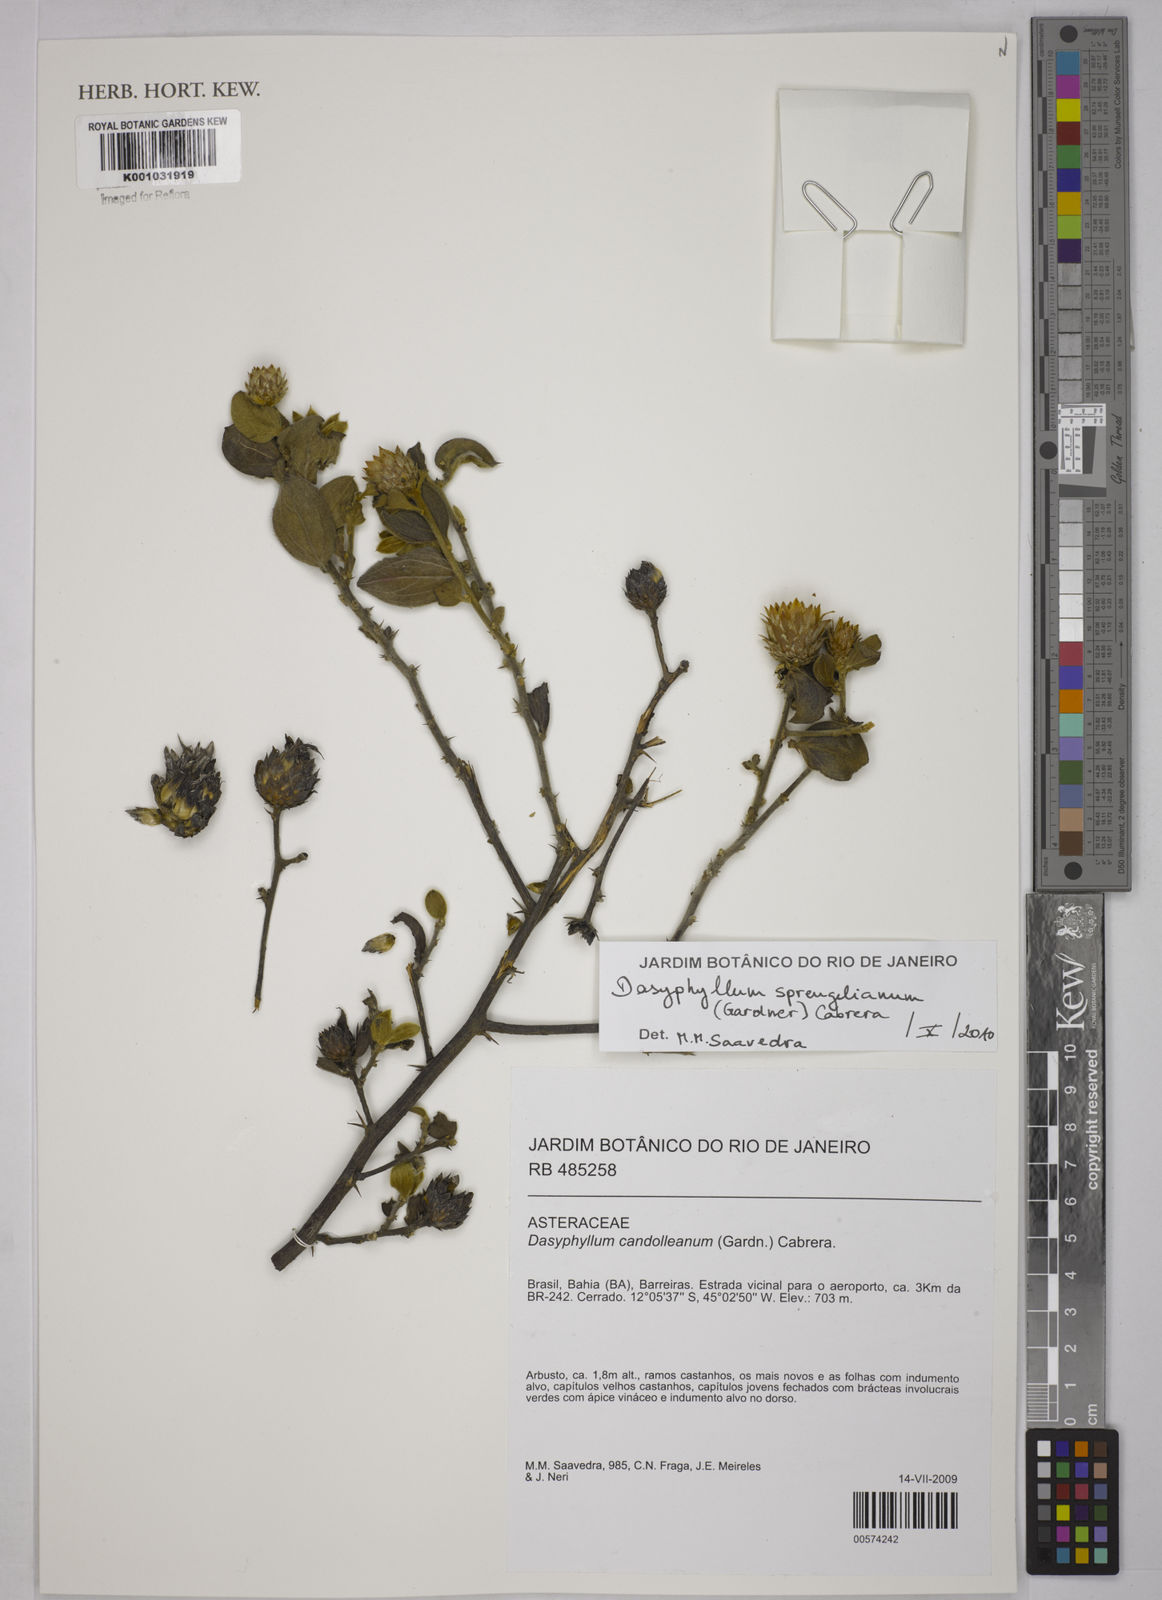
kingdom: Plantae
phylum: Tracheophyta
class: Magnoliopsida
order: Asterales
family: Asteraceae
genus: Dasyphyllum
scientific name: Dasyphyllum sprengelianum
